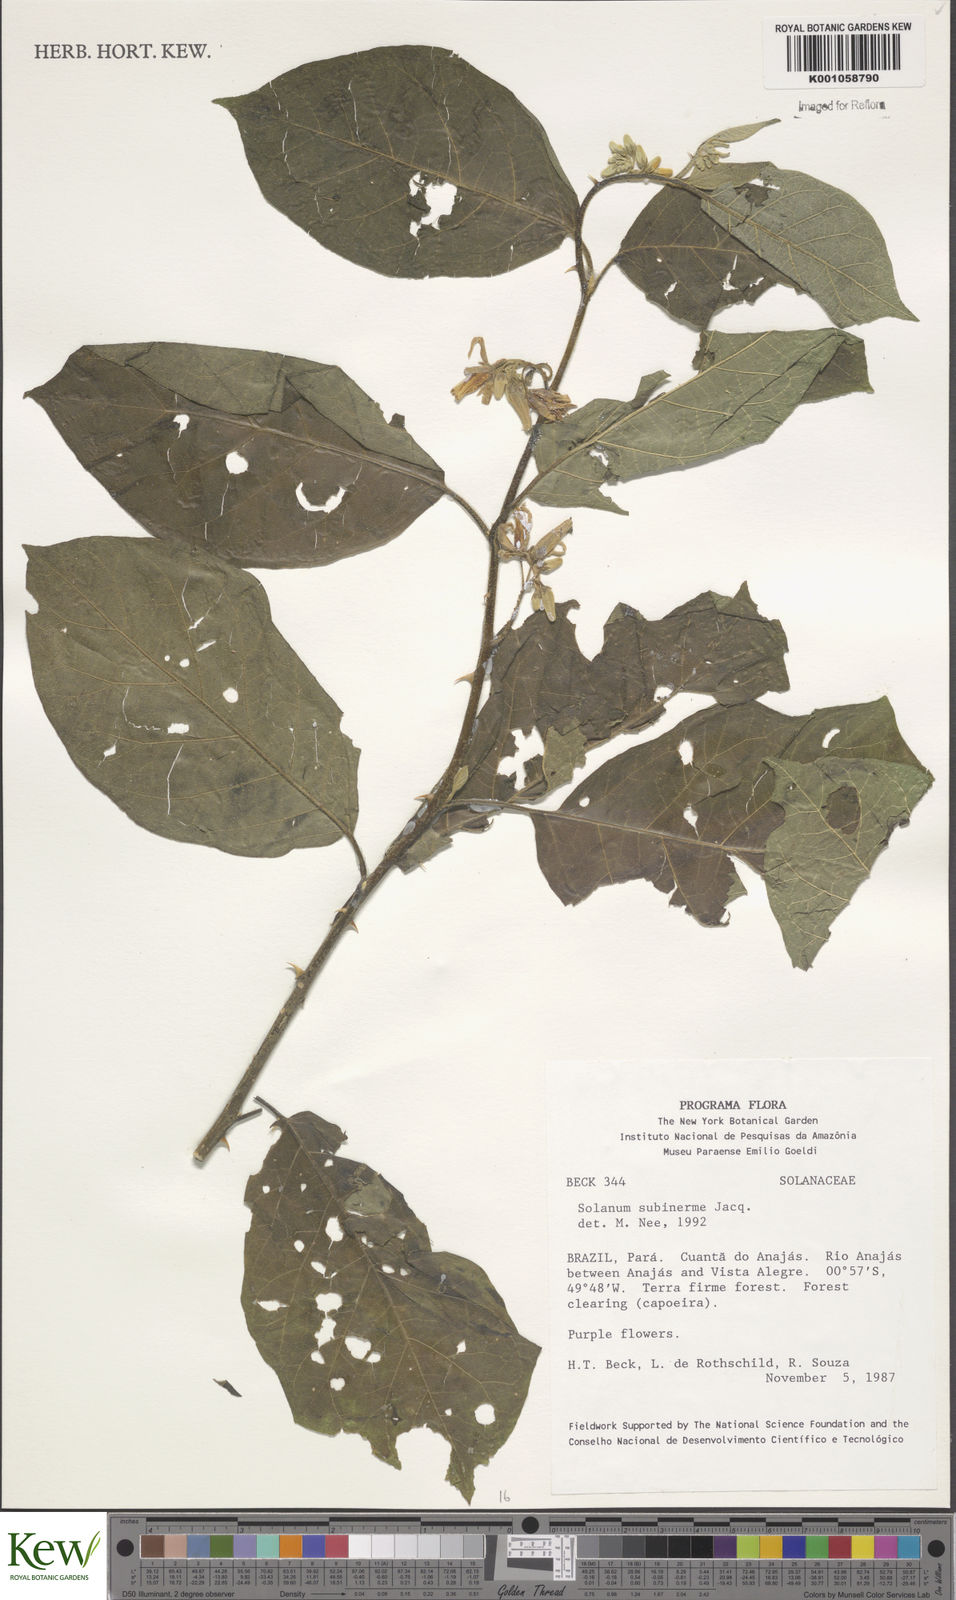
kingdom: Plantae
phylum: Tracheophyta
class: Magnoliopsida
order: Solanales
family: Solanaceae
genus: Solanum
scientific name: Solanum subinerme
